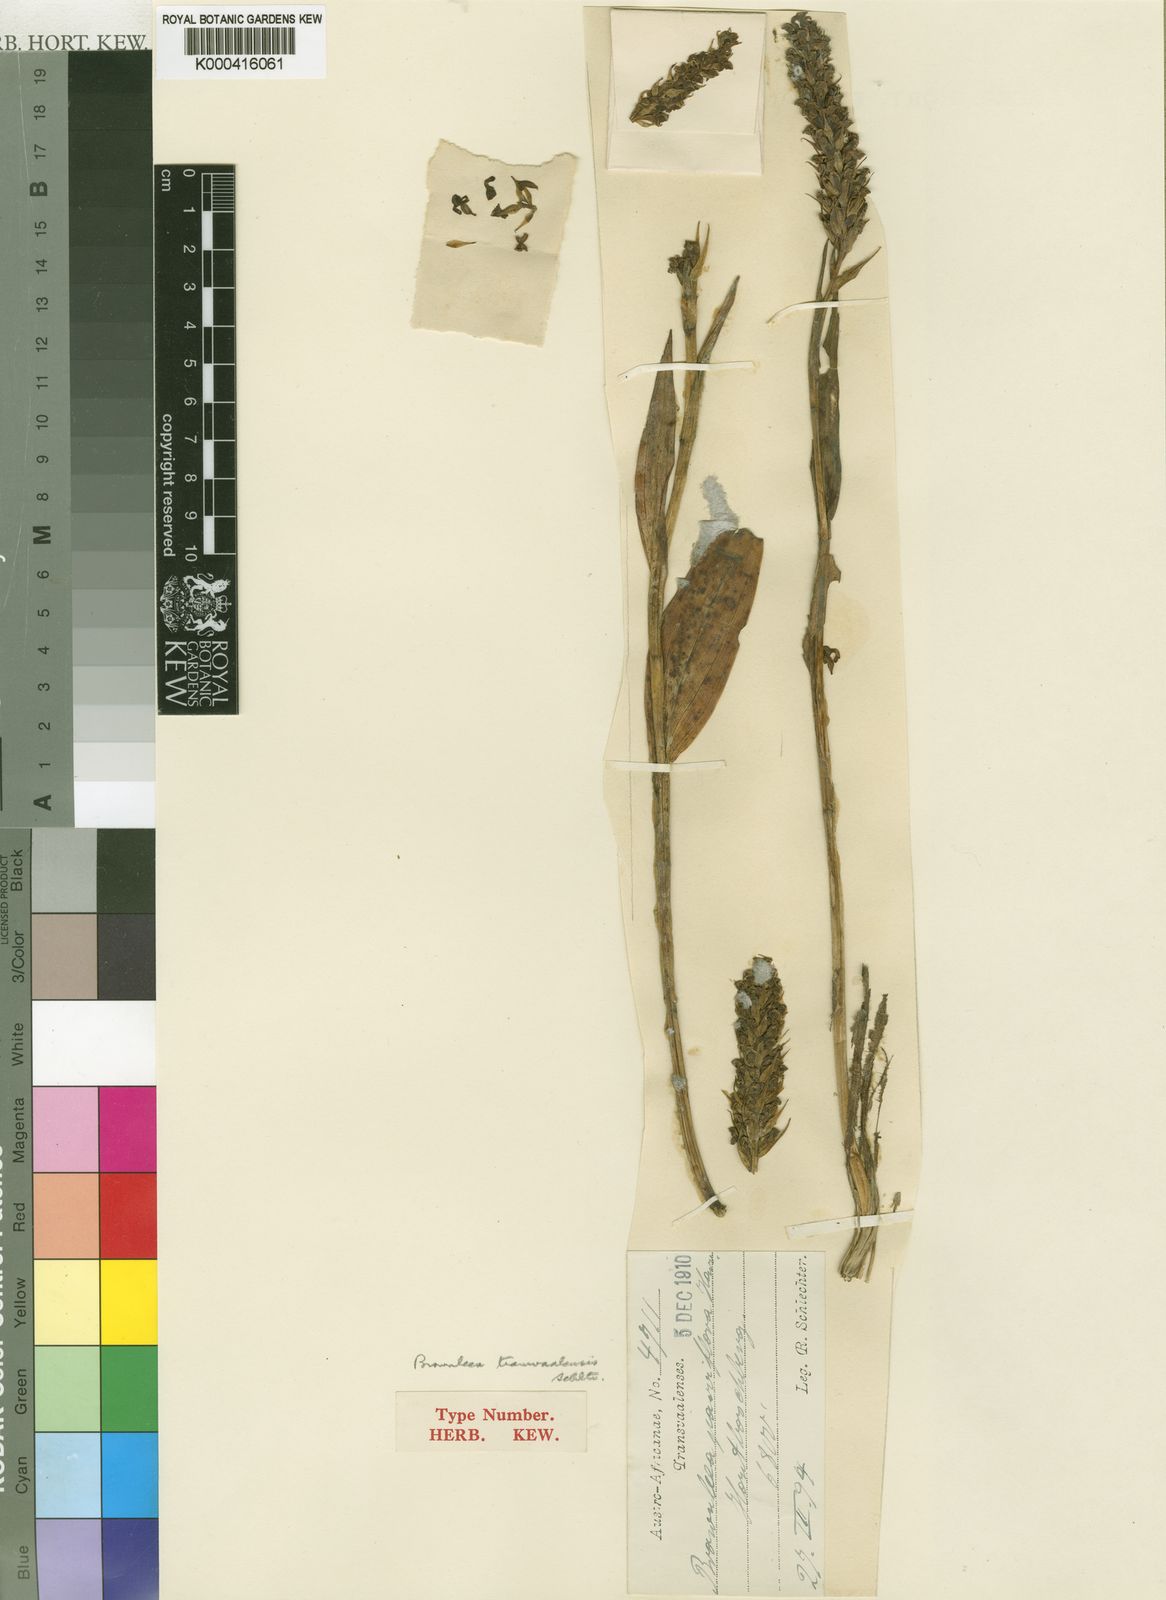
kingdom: Plantae
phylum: Tracheophyta
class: Liliopsida
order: Asparagales
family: Orchidaceae
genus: Brownleea
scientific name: Brownleea parviflora
